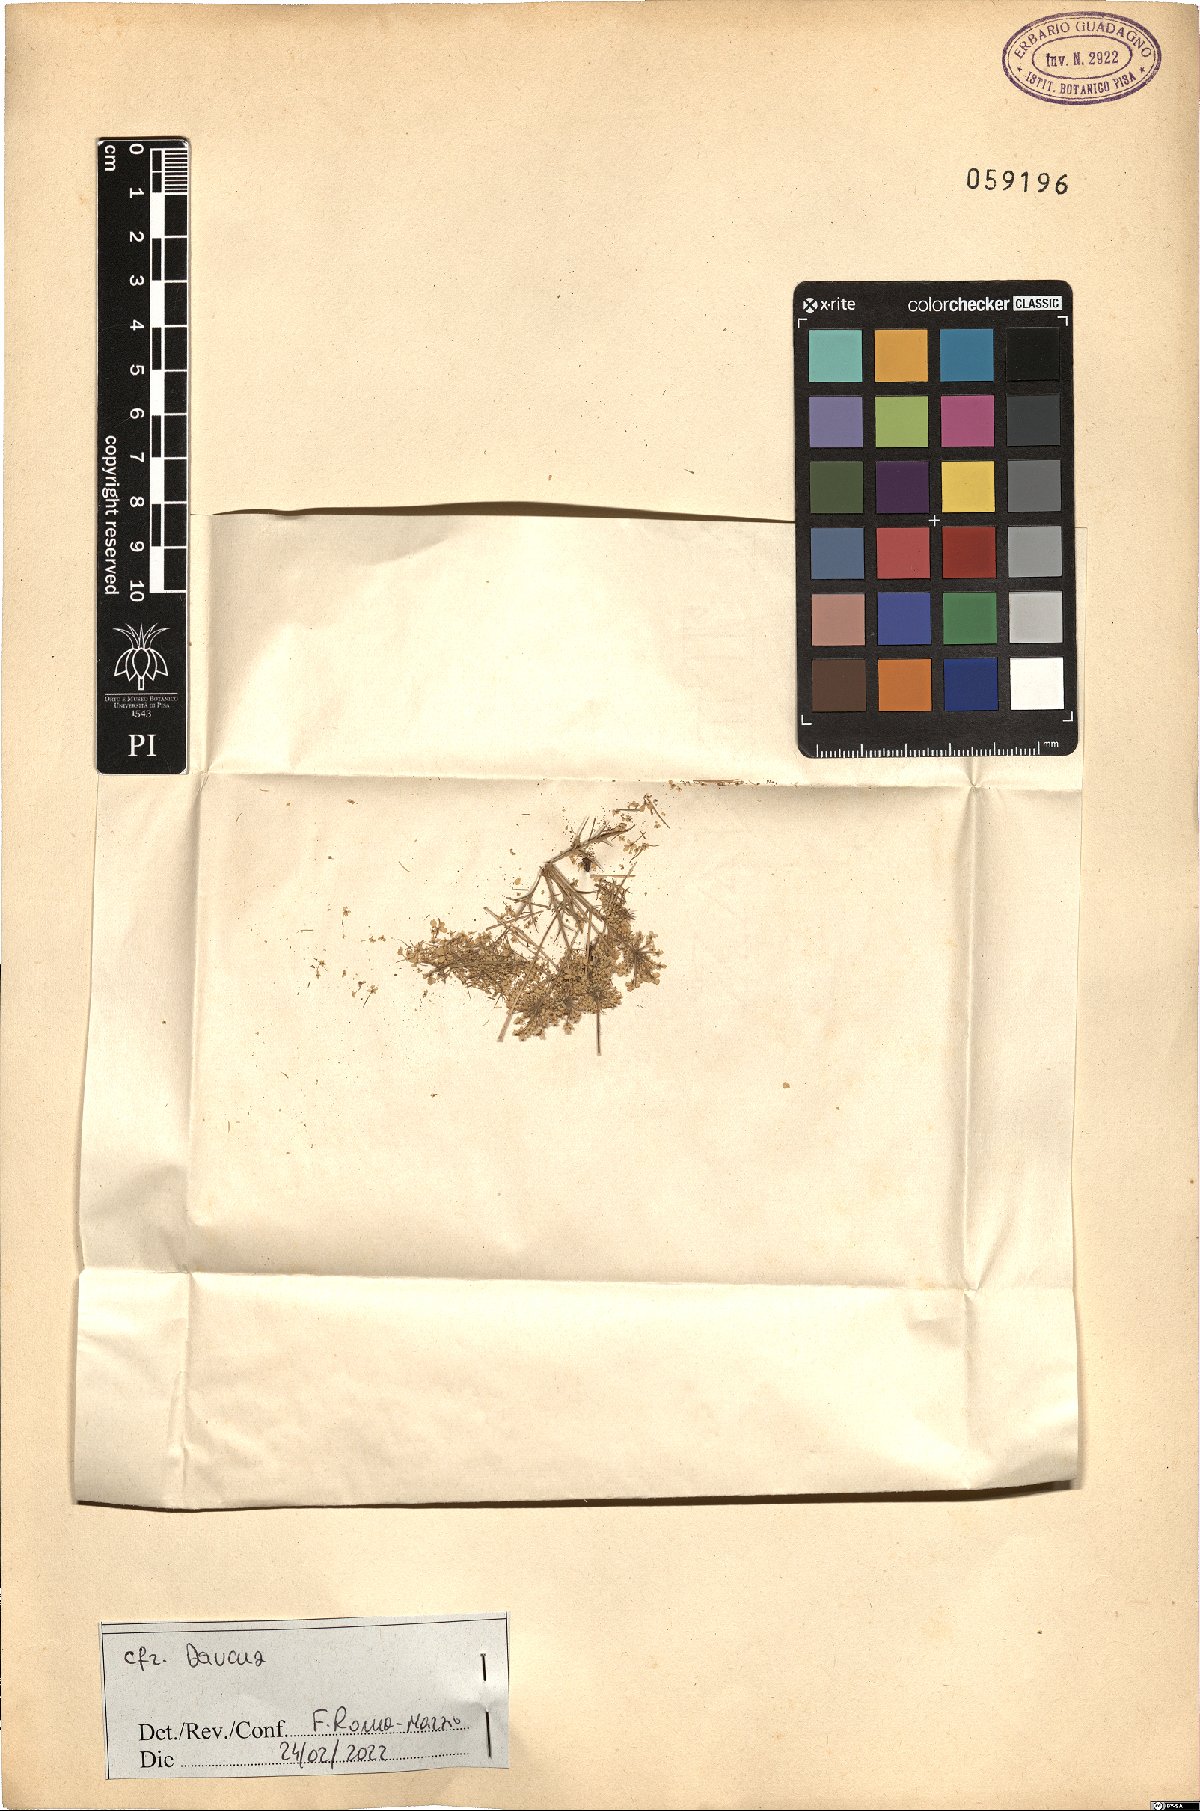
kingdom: Plantae
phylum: Tracheophyta
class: Magnoliopsida
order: Apiales
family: Apiaceae
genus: Daucus
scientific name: Daucus
